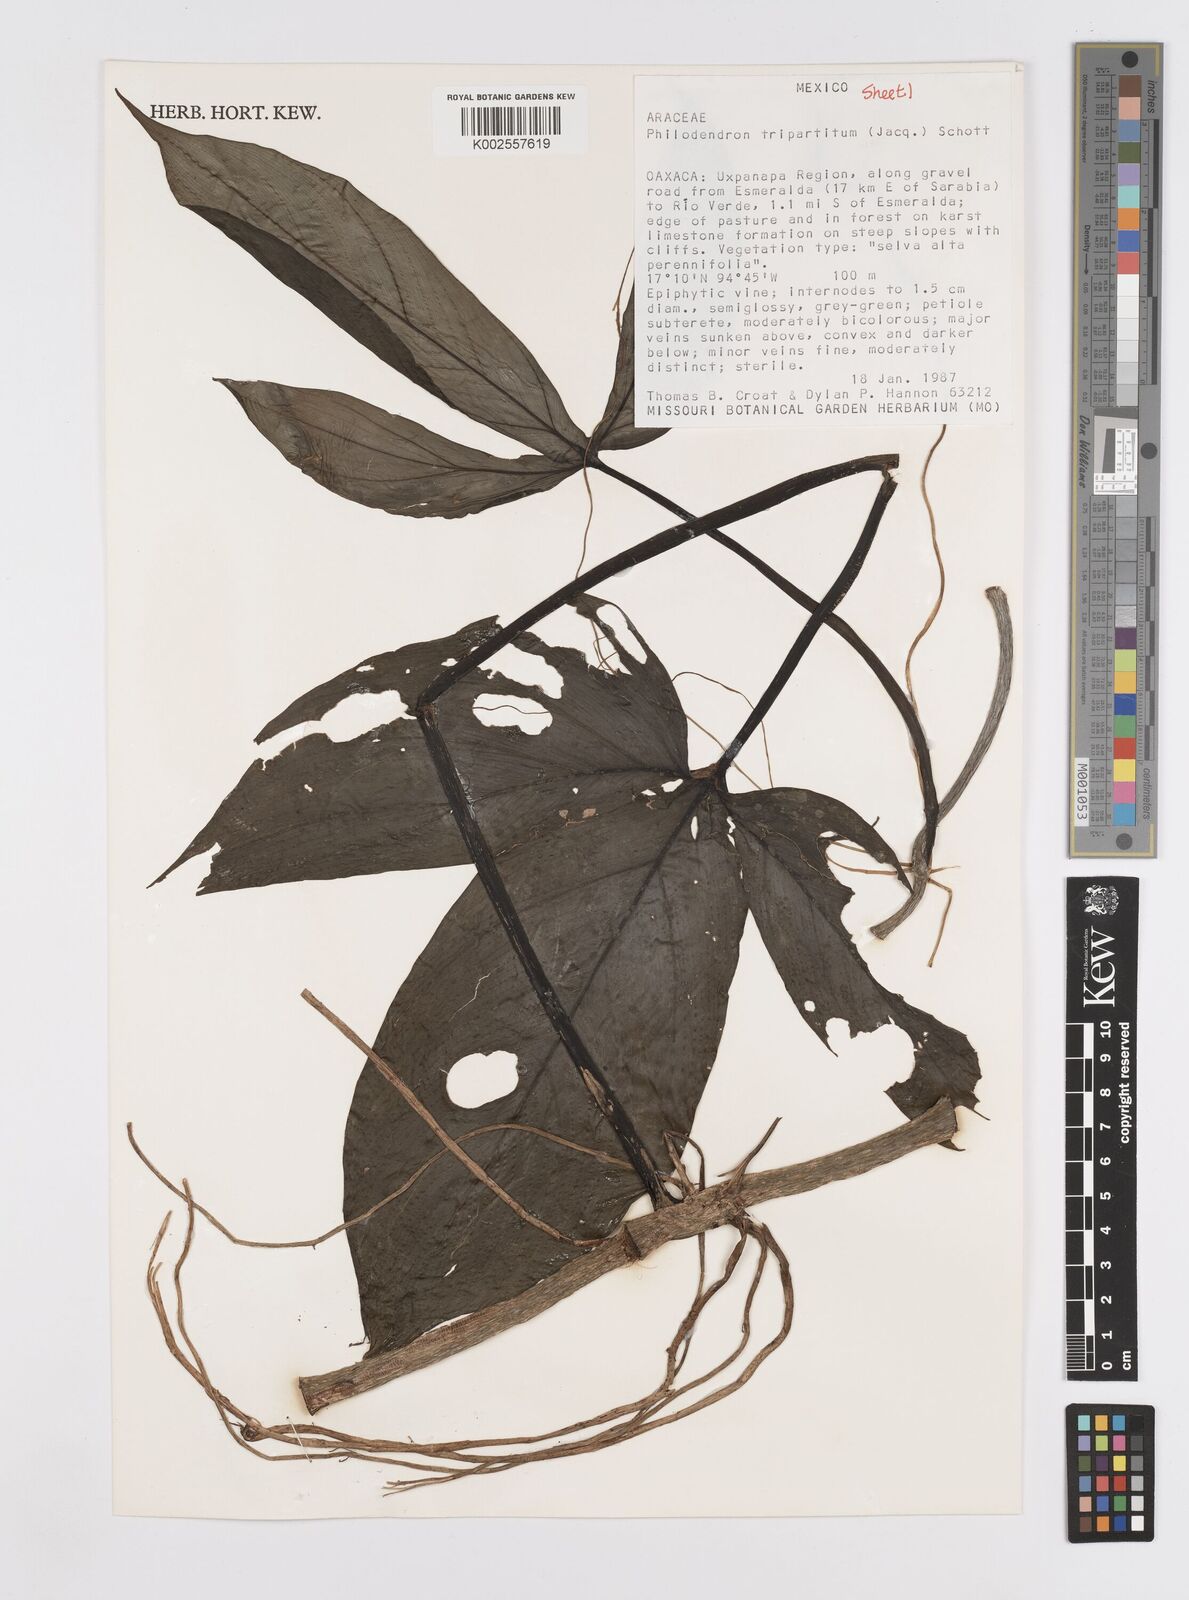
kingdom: Plantae
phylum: Tracheophyta
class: Liliopsida
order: Alismatales
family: Araceae
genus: Philodendron
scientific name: Philodendron tripartitum
